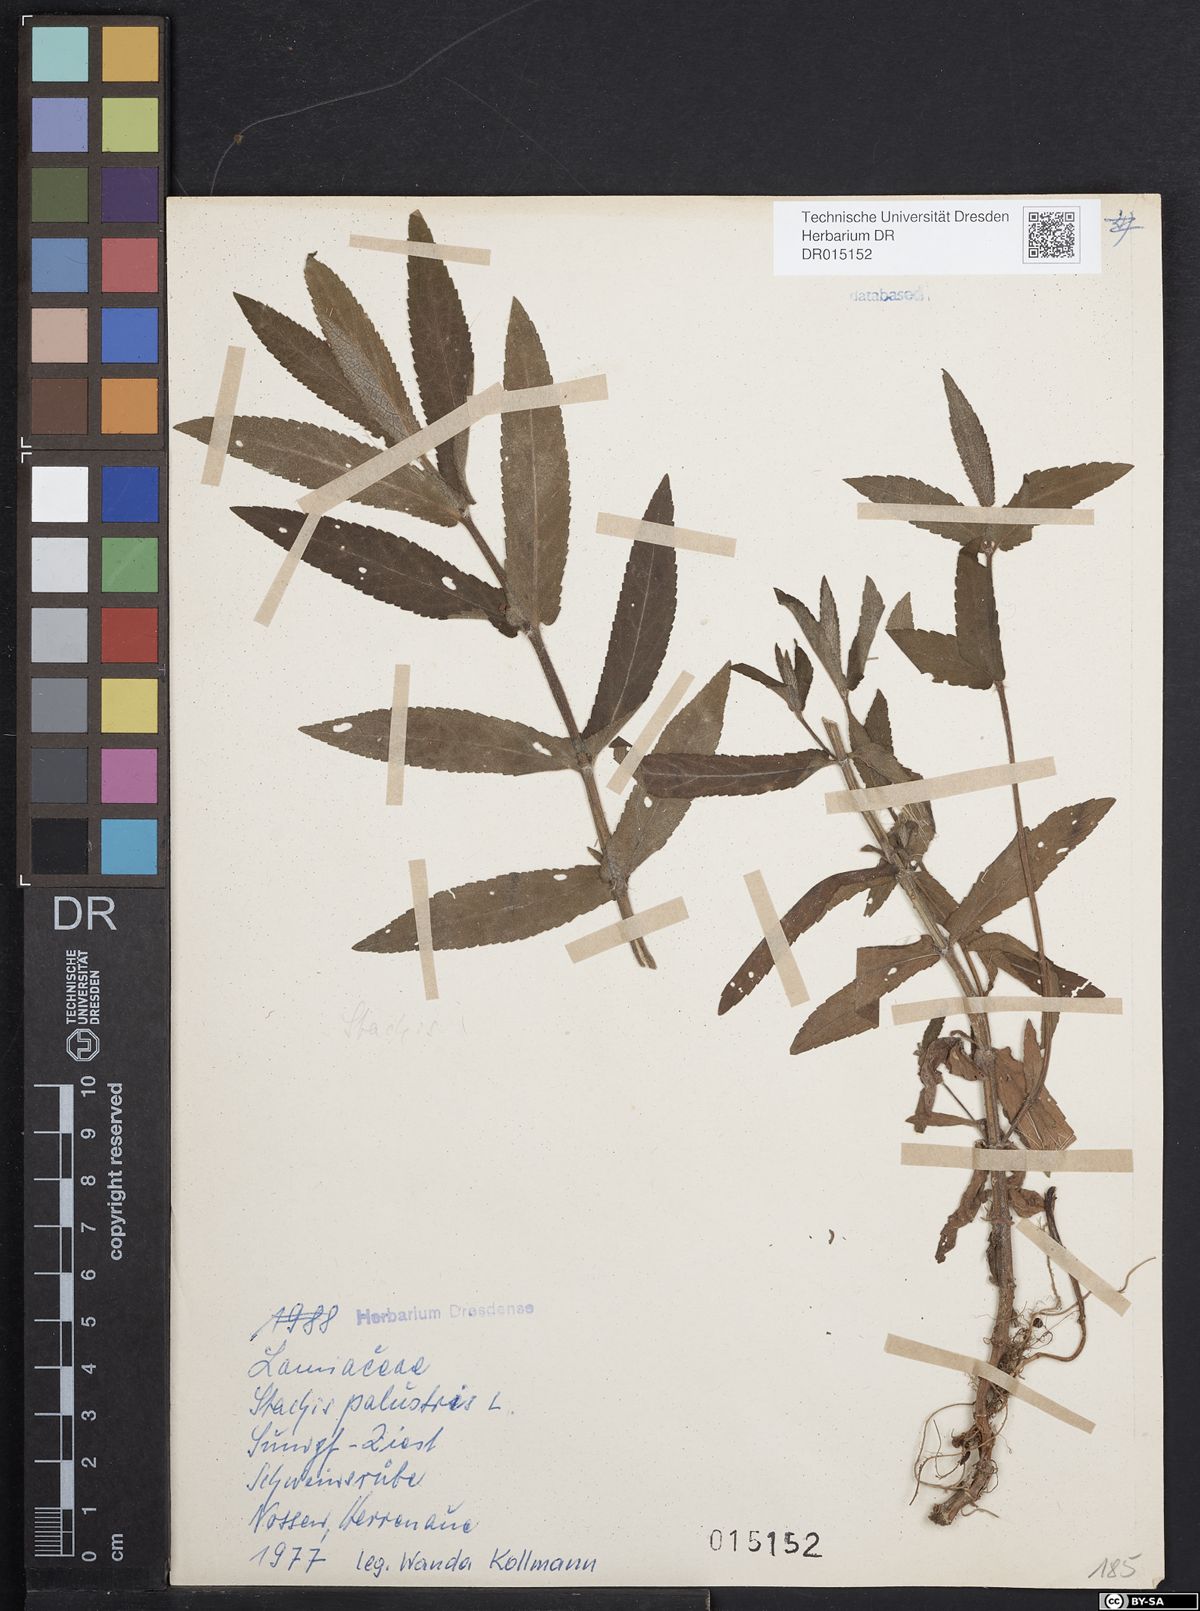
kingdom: Plantae
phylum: Tracheophyta
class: Magnoliopsida
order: Lamiales
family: Lamiaceae
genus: Stachys
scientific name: Stachys palustris
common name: Marsh woundwort
